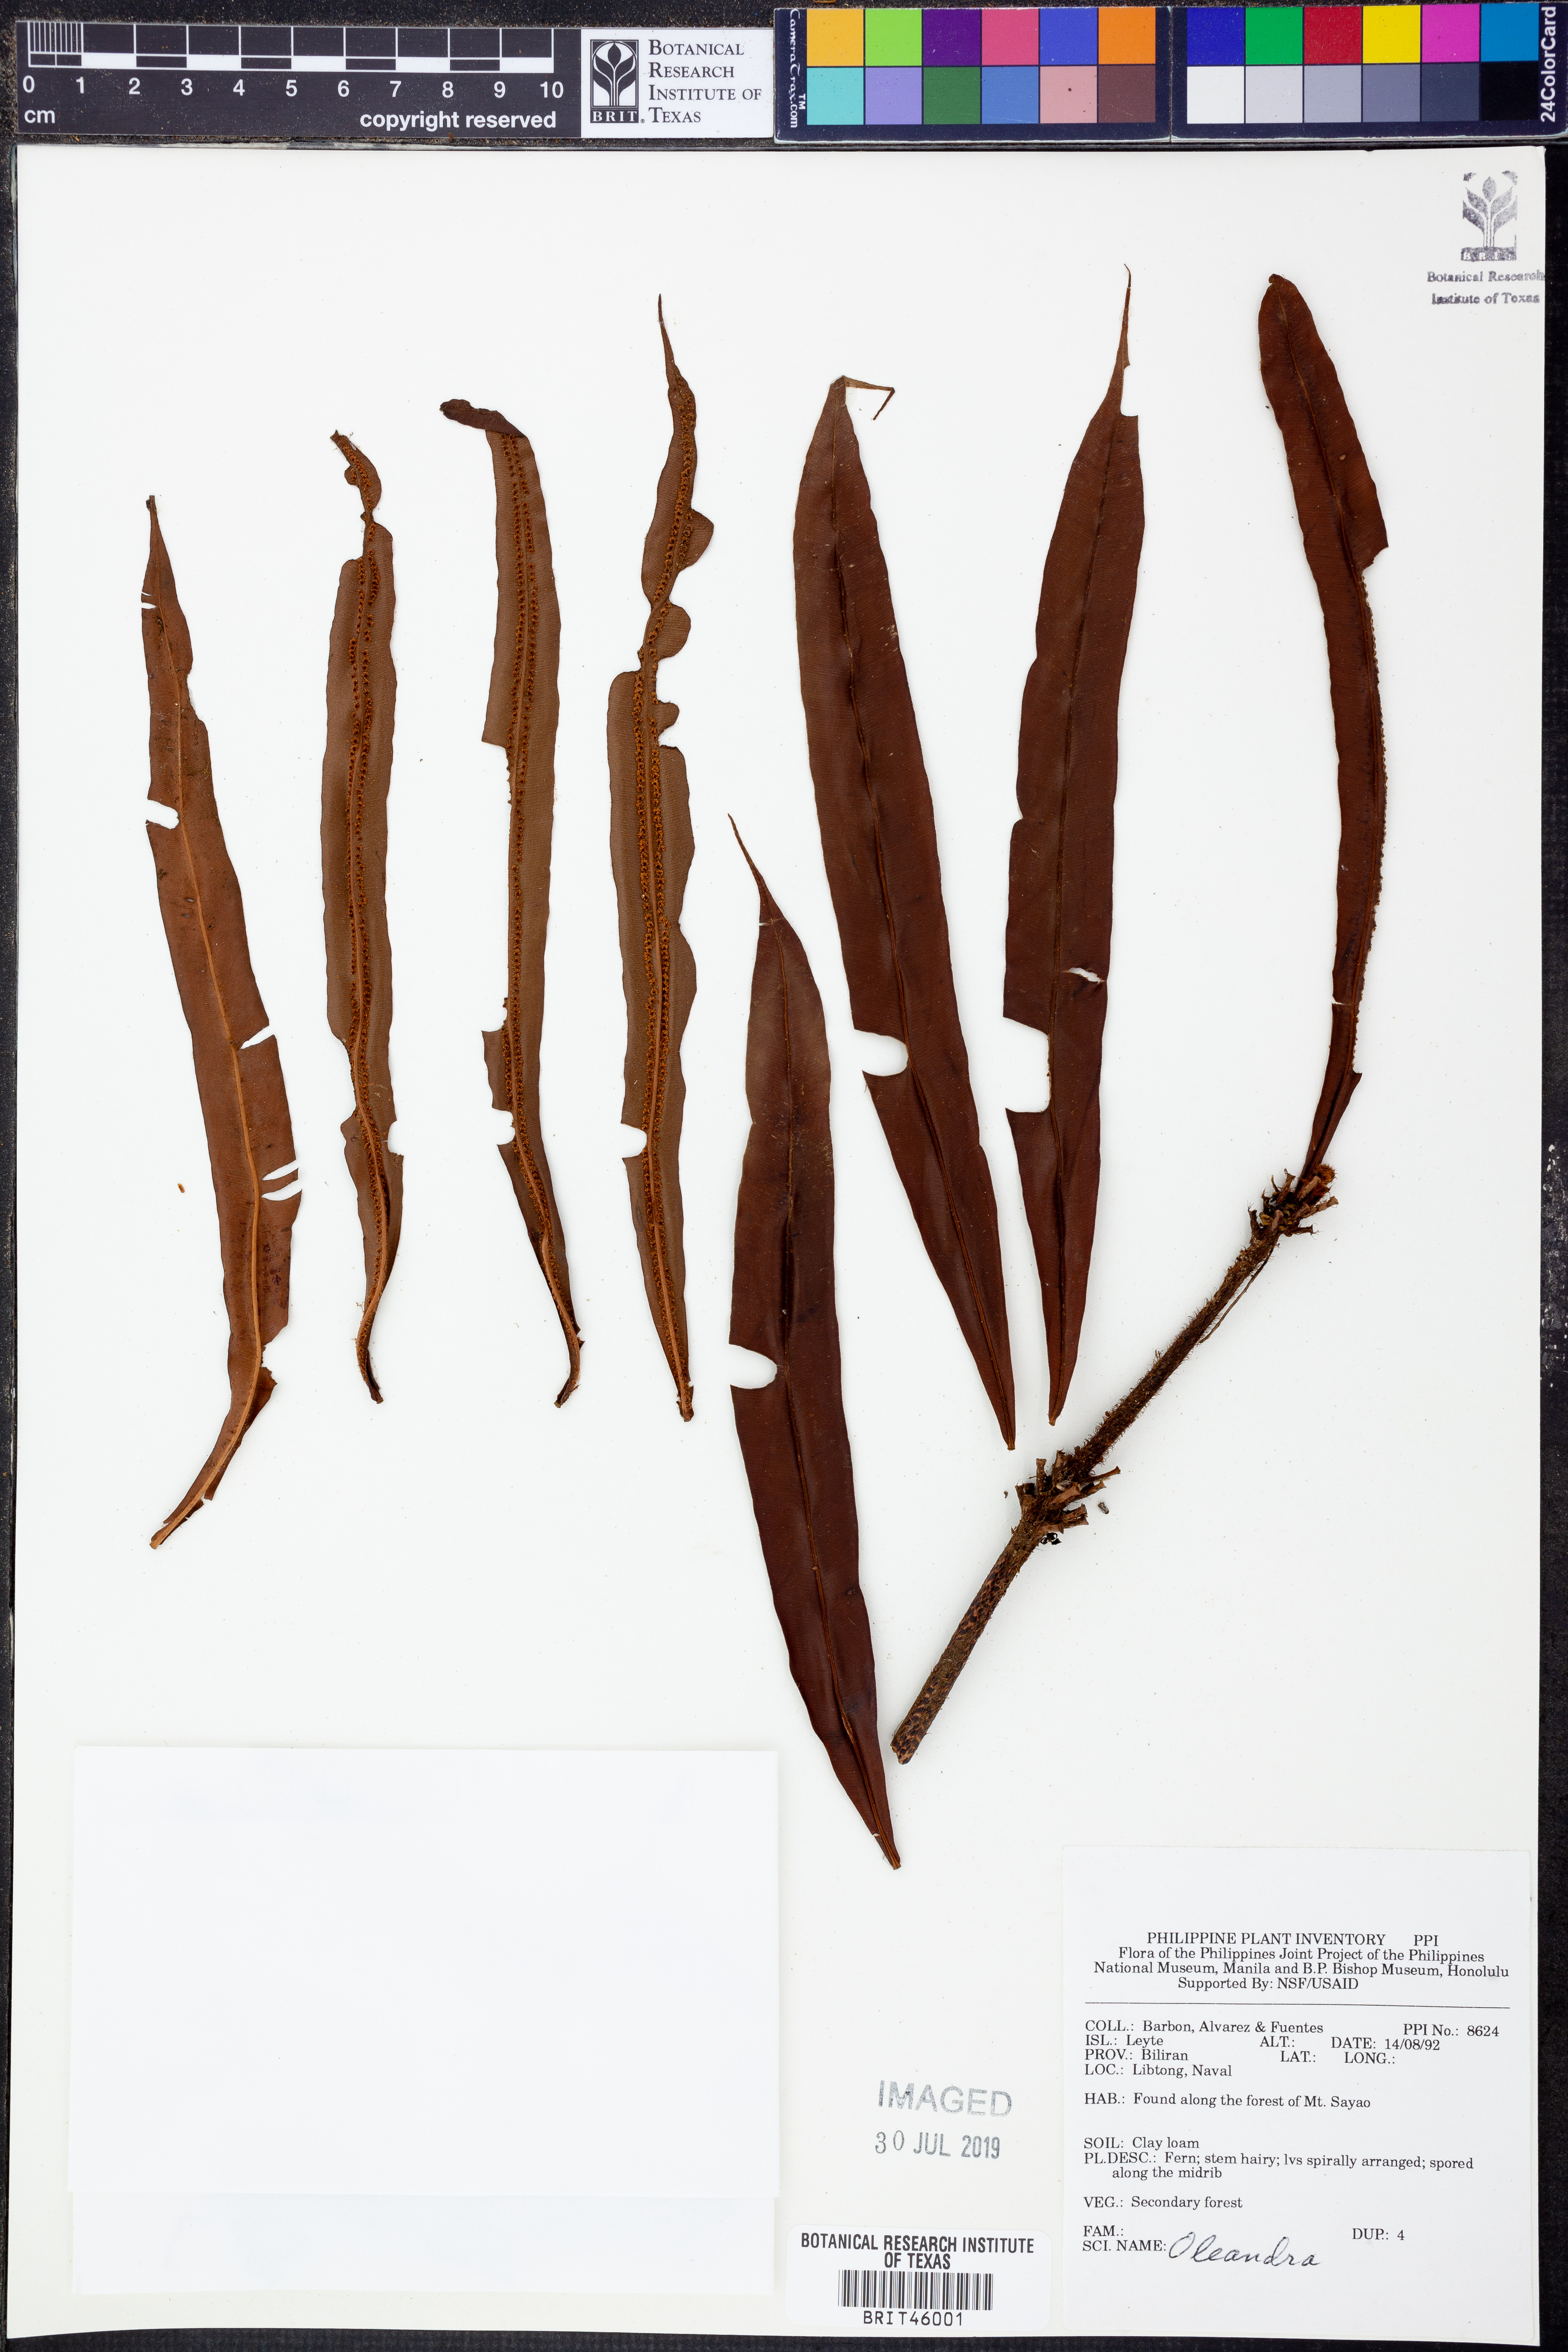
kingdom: Plantae
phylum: Tracheophyta
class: Polypodiopsida
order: Polypodiales
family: Oleandraceae
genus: Oleandra
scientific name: Oleandra
